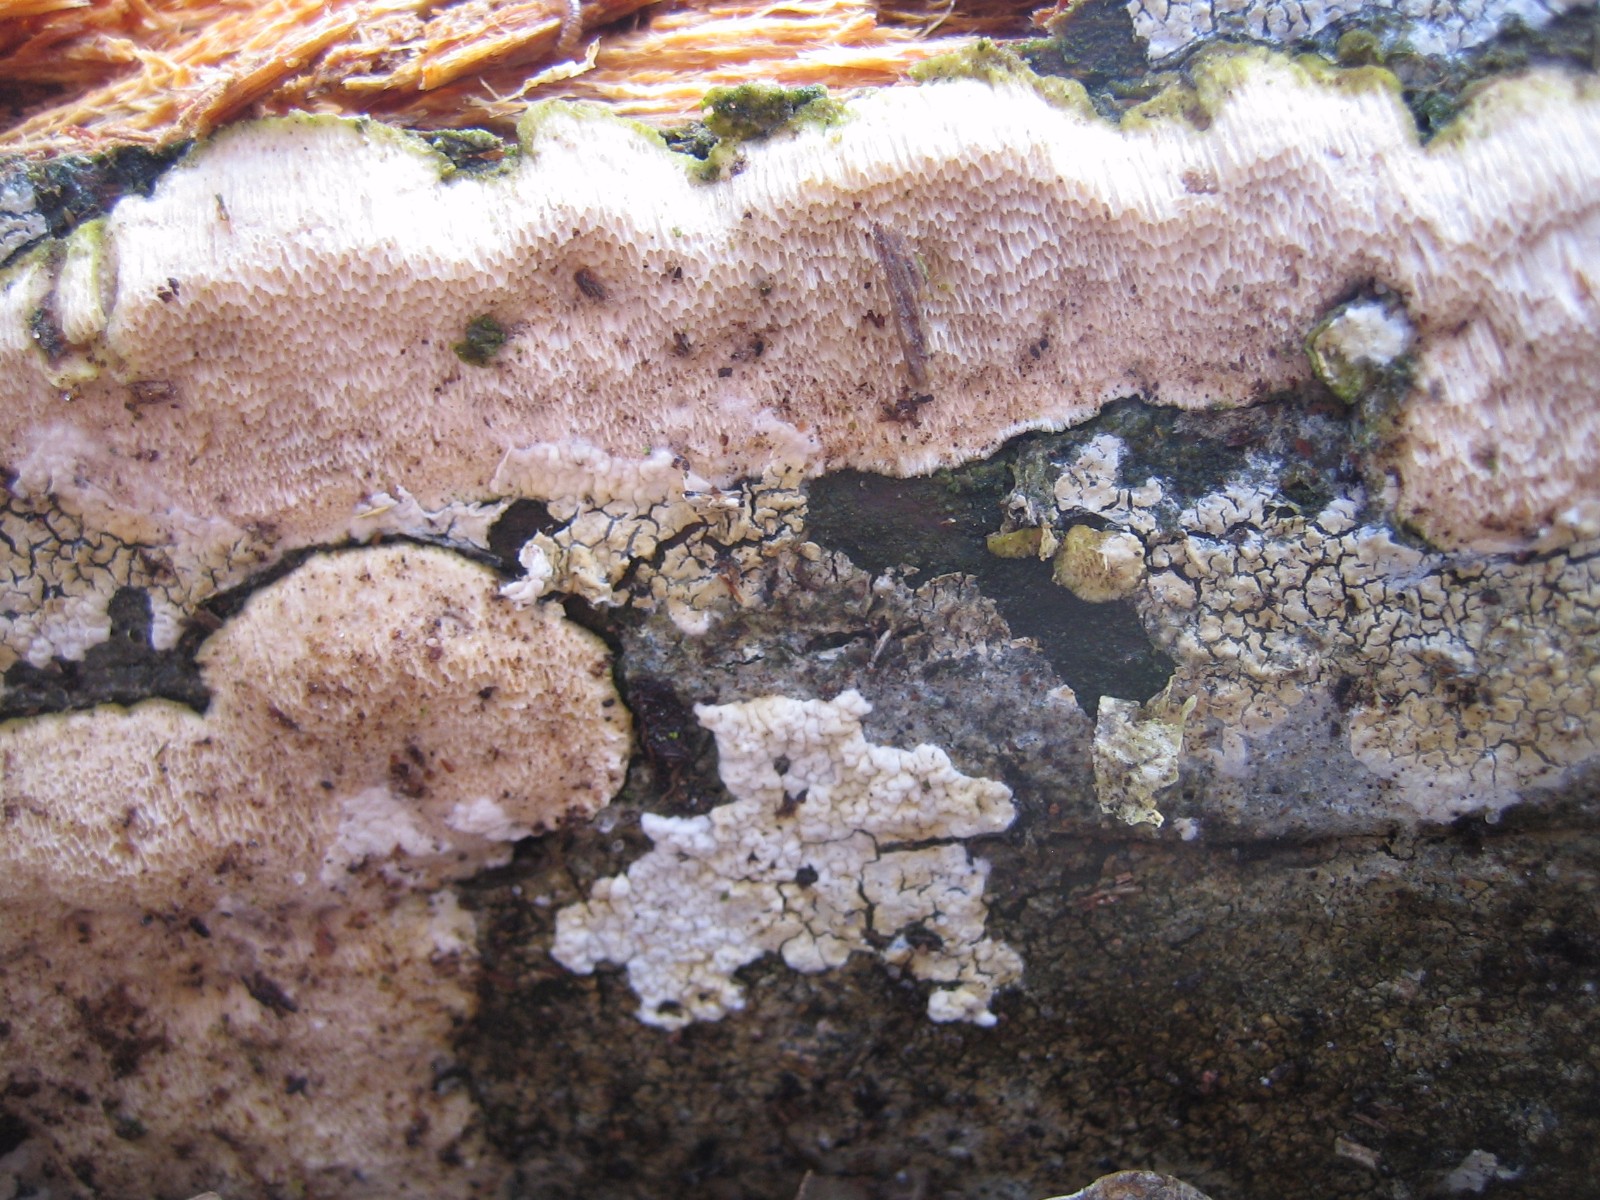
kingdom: Fungi
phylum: Basidiomycota
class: Agaricomycetes
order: Polyporales
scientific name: Polyporales
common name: poresvampordenen
